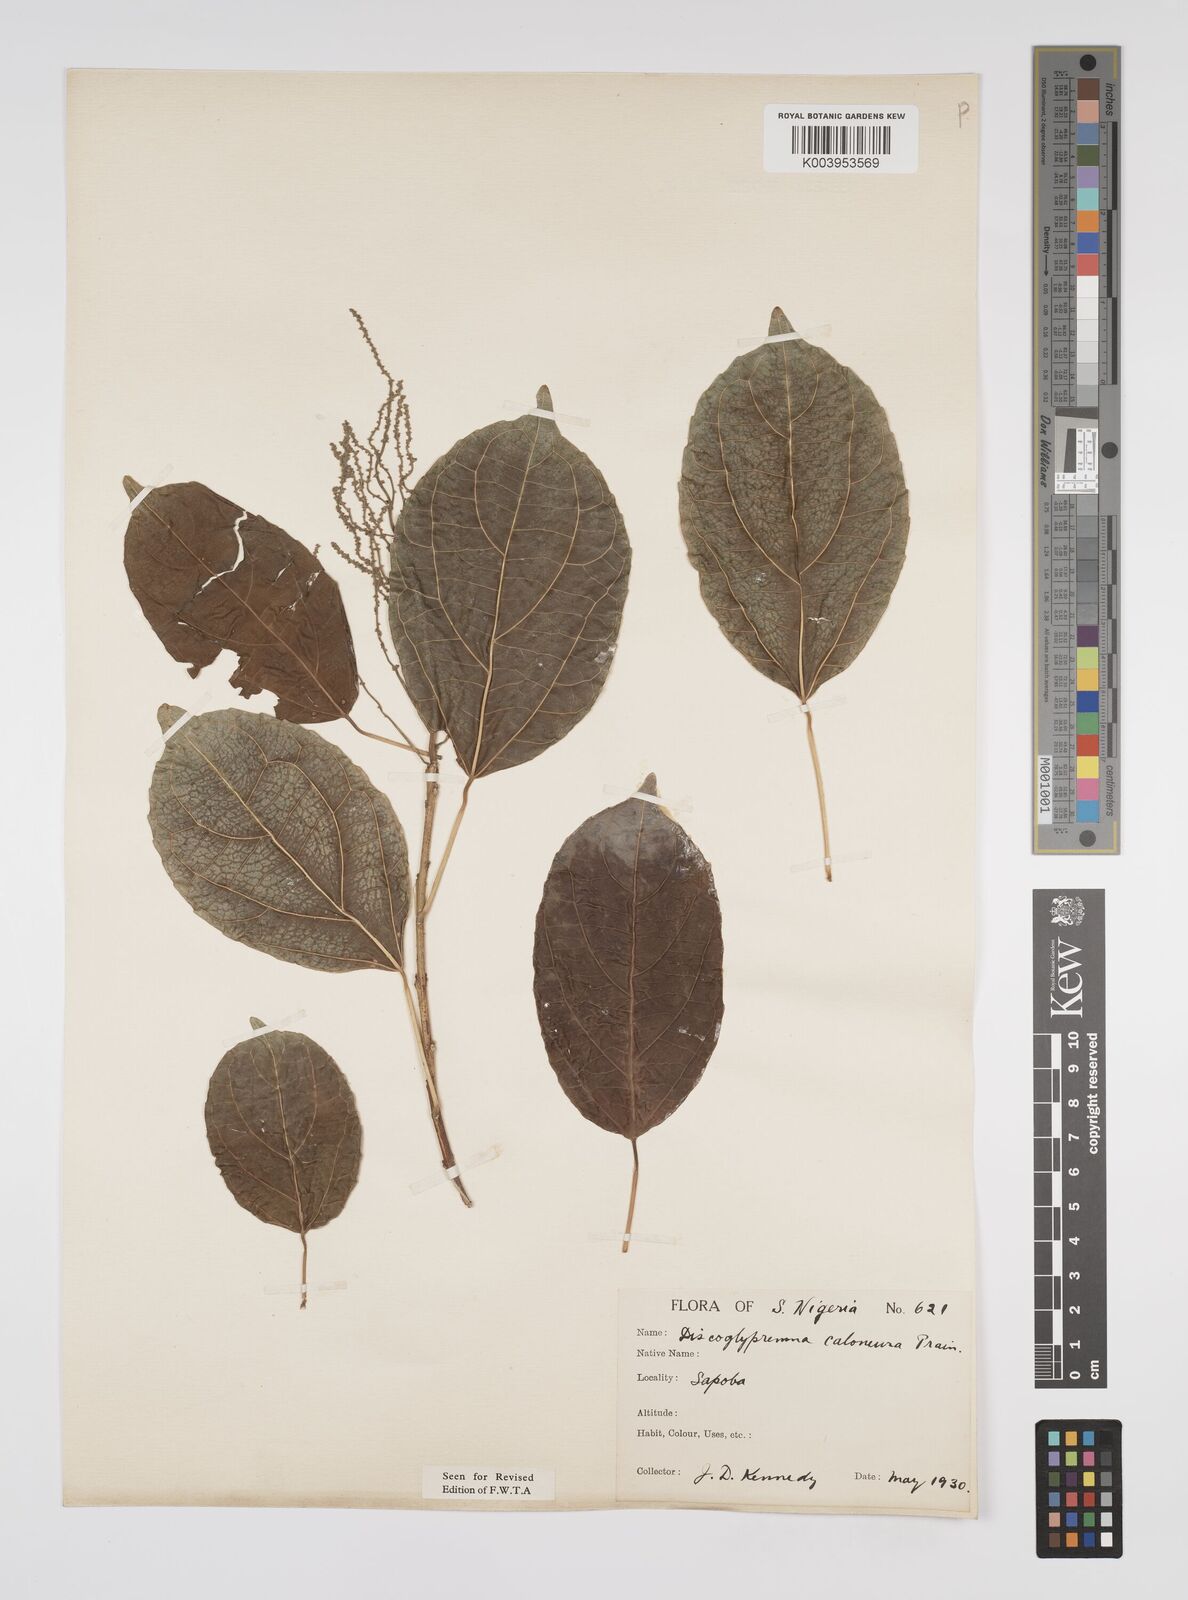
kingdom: Plantae
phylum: Tracheophyta
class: Magnoliopsida
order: Malpighiales
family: Euphorbiaceae
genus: Discoglypremna
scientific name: Discoglypremna caloneura
